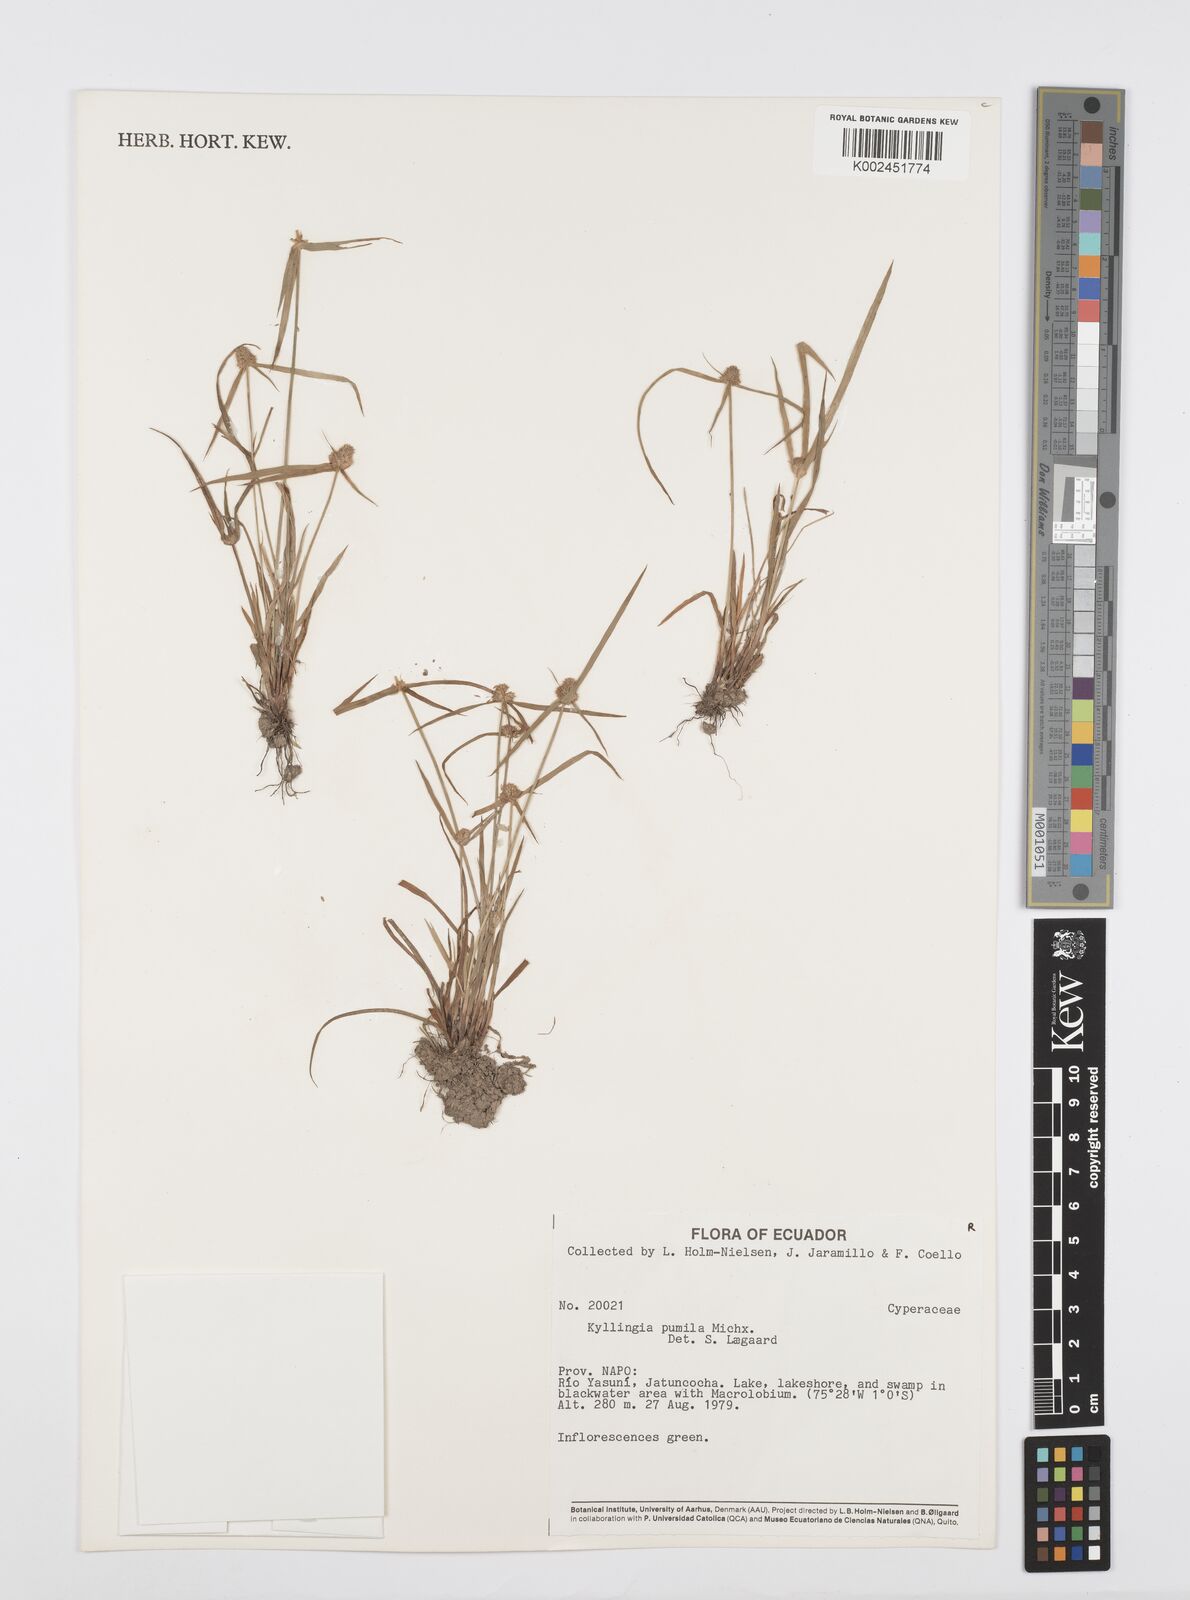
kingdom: Plantae
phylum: Tracheophyta
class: Liliopsida
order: Poales
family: Cyperaceae
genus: Cyperus
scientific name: Cyperus
